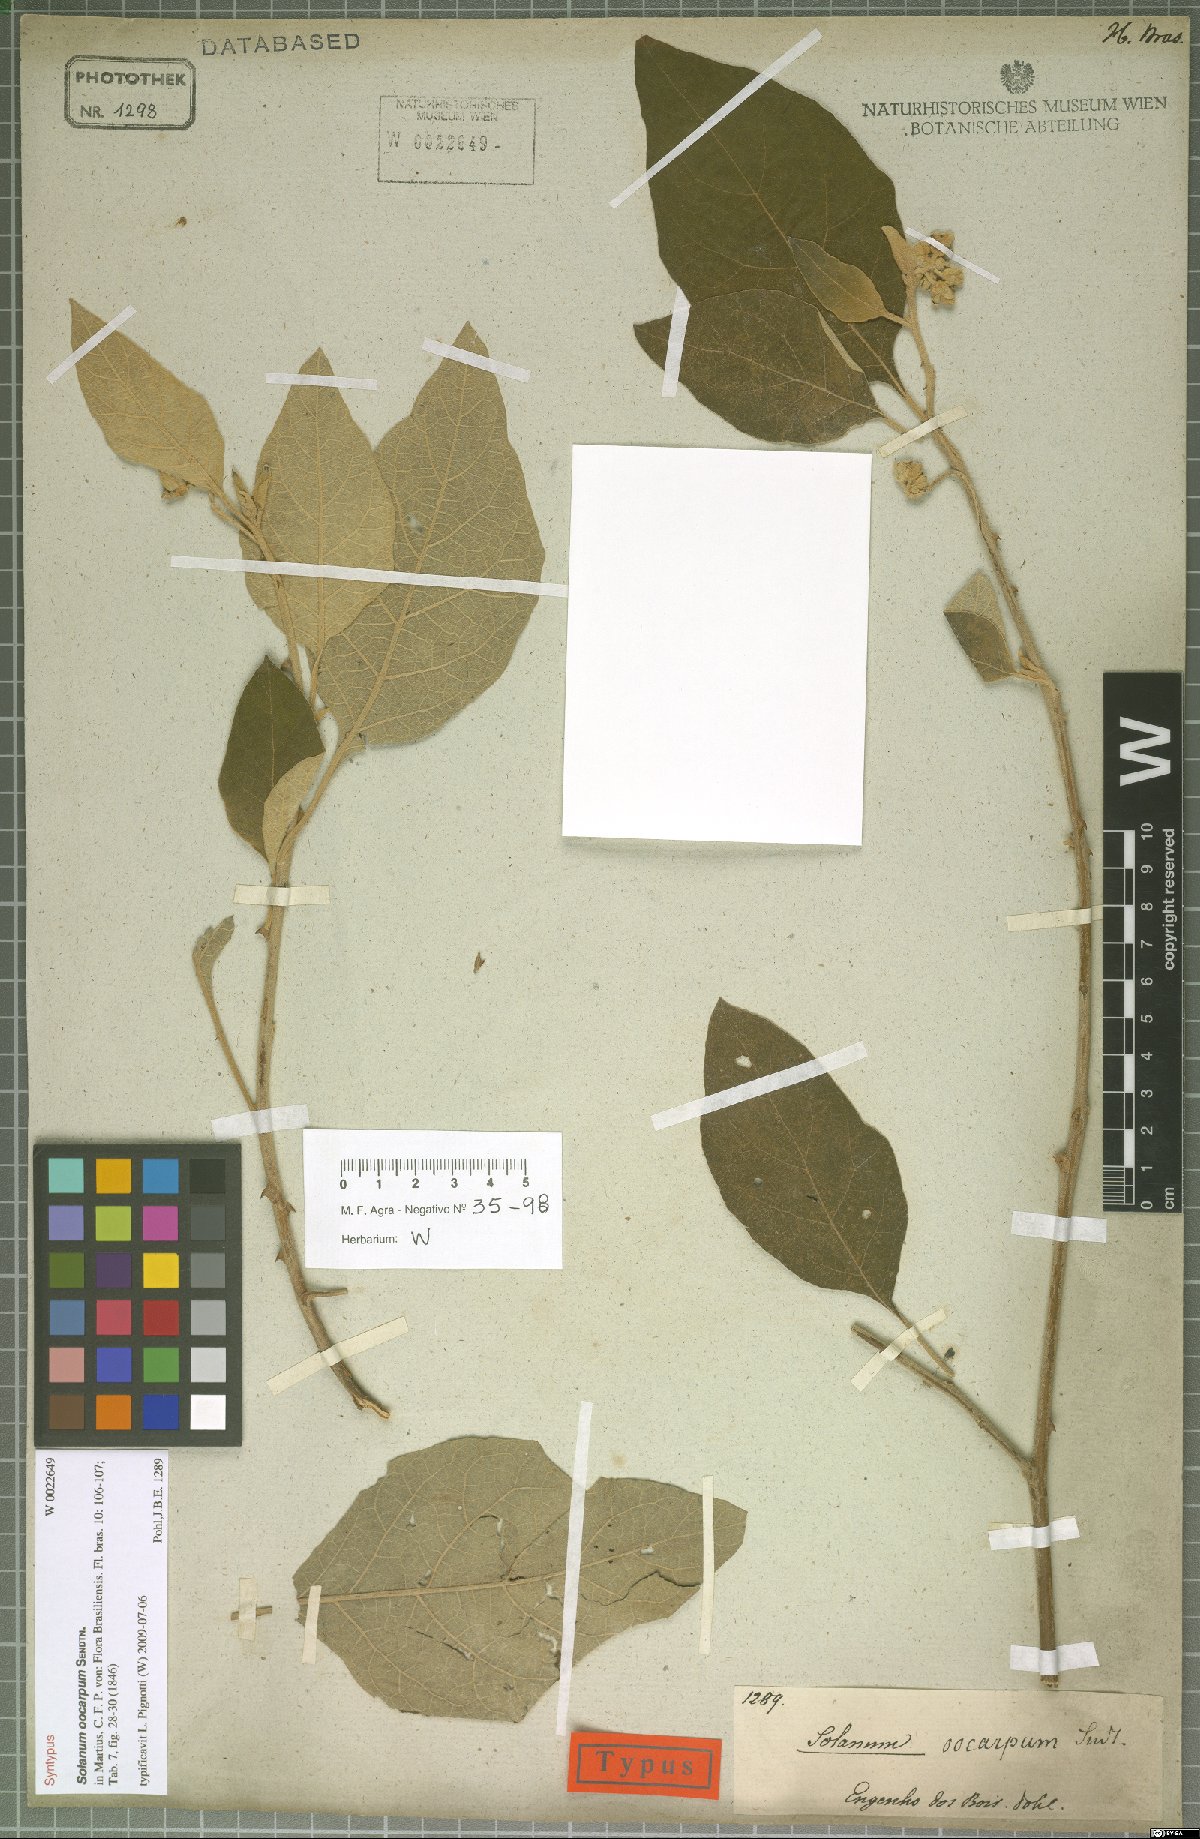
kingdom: Plantae
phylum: Tracheophyta
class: Magnoliopsida
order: Solanales
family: Solanaceae
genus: Solanum
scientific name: Solanum oocarpum
